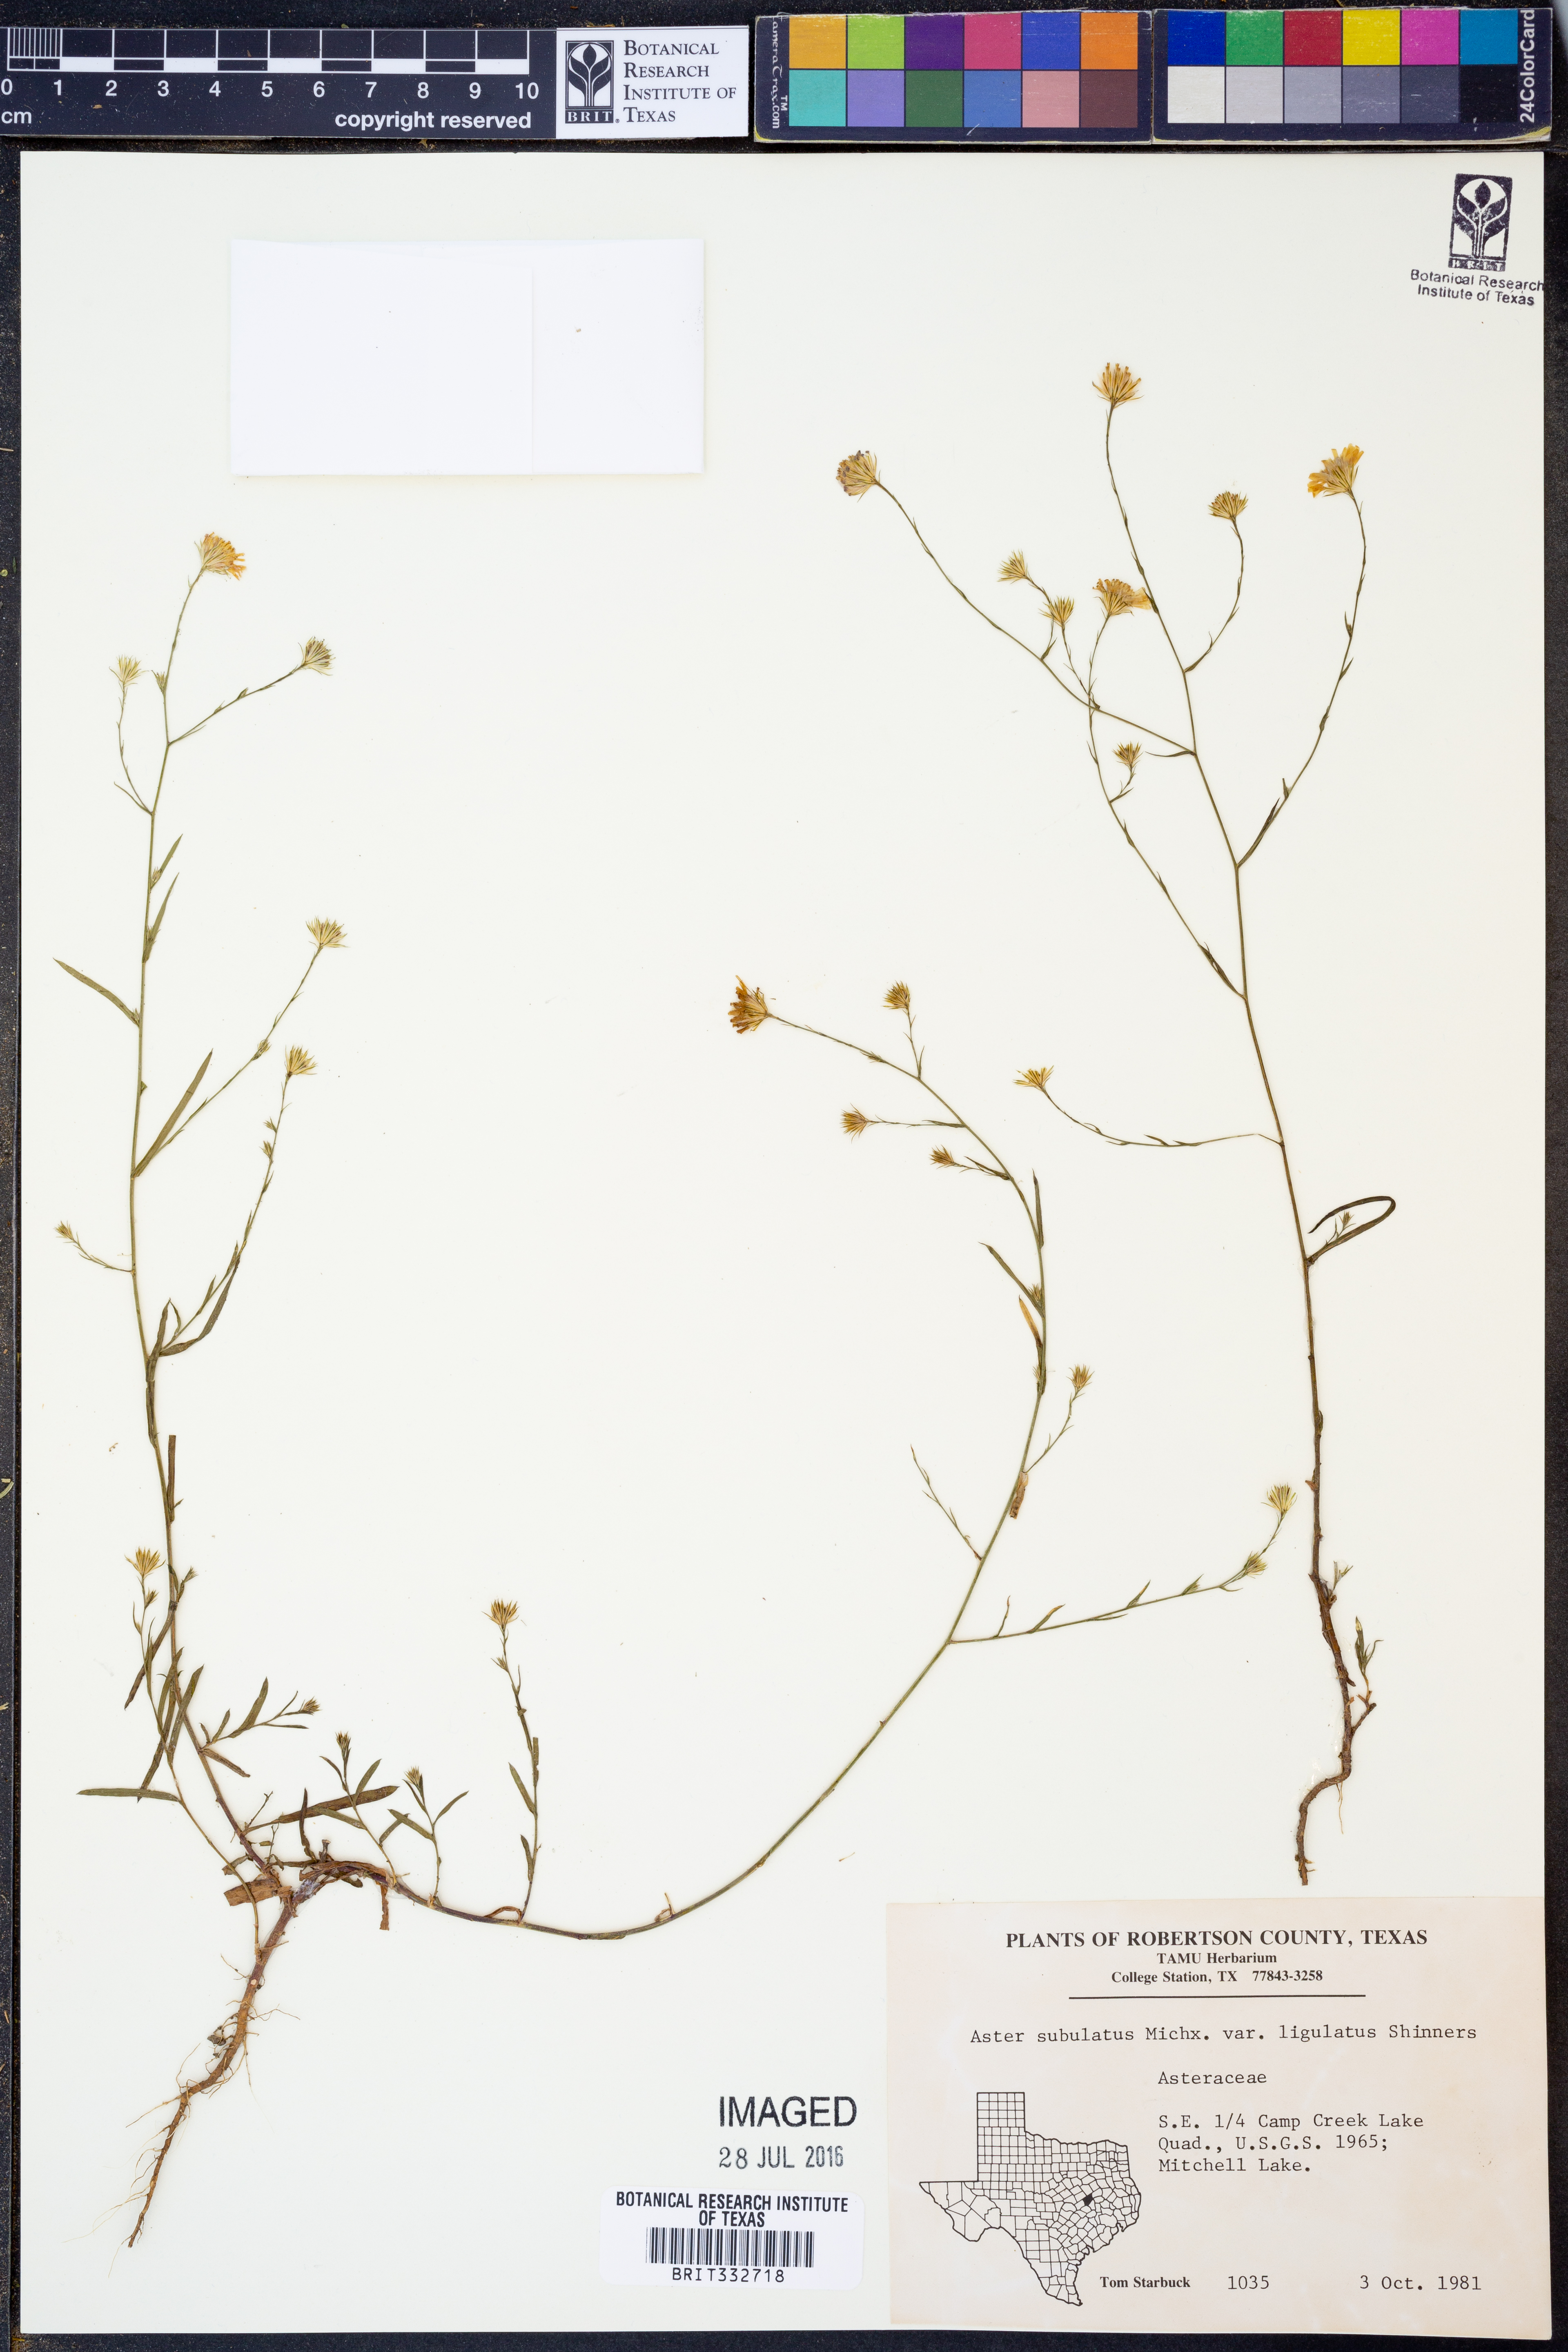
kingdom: Plantae
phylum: Tracheophyta
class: Magnoliopsida
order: Asterales
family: Asteraceae
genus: Symphyotrichum
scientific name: Symphyotrichum subulatum
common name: Annual saltmarsh aster
